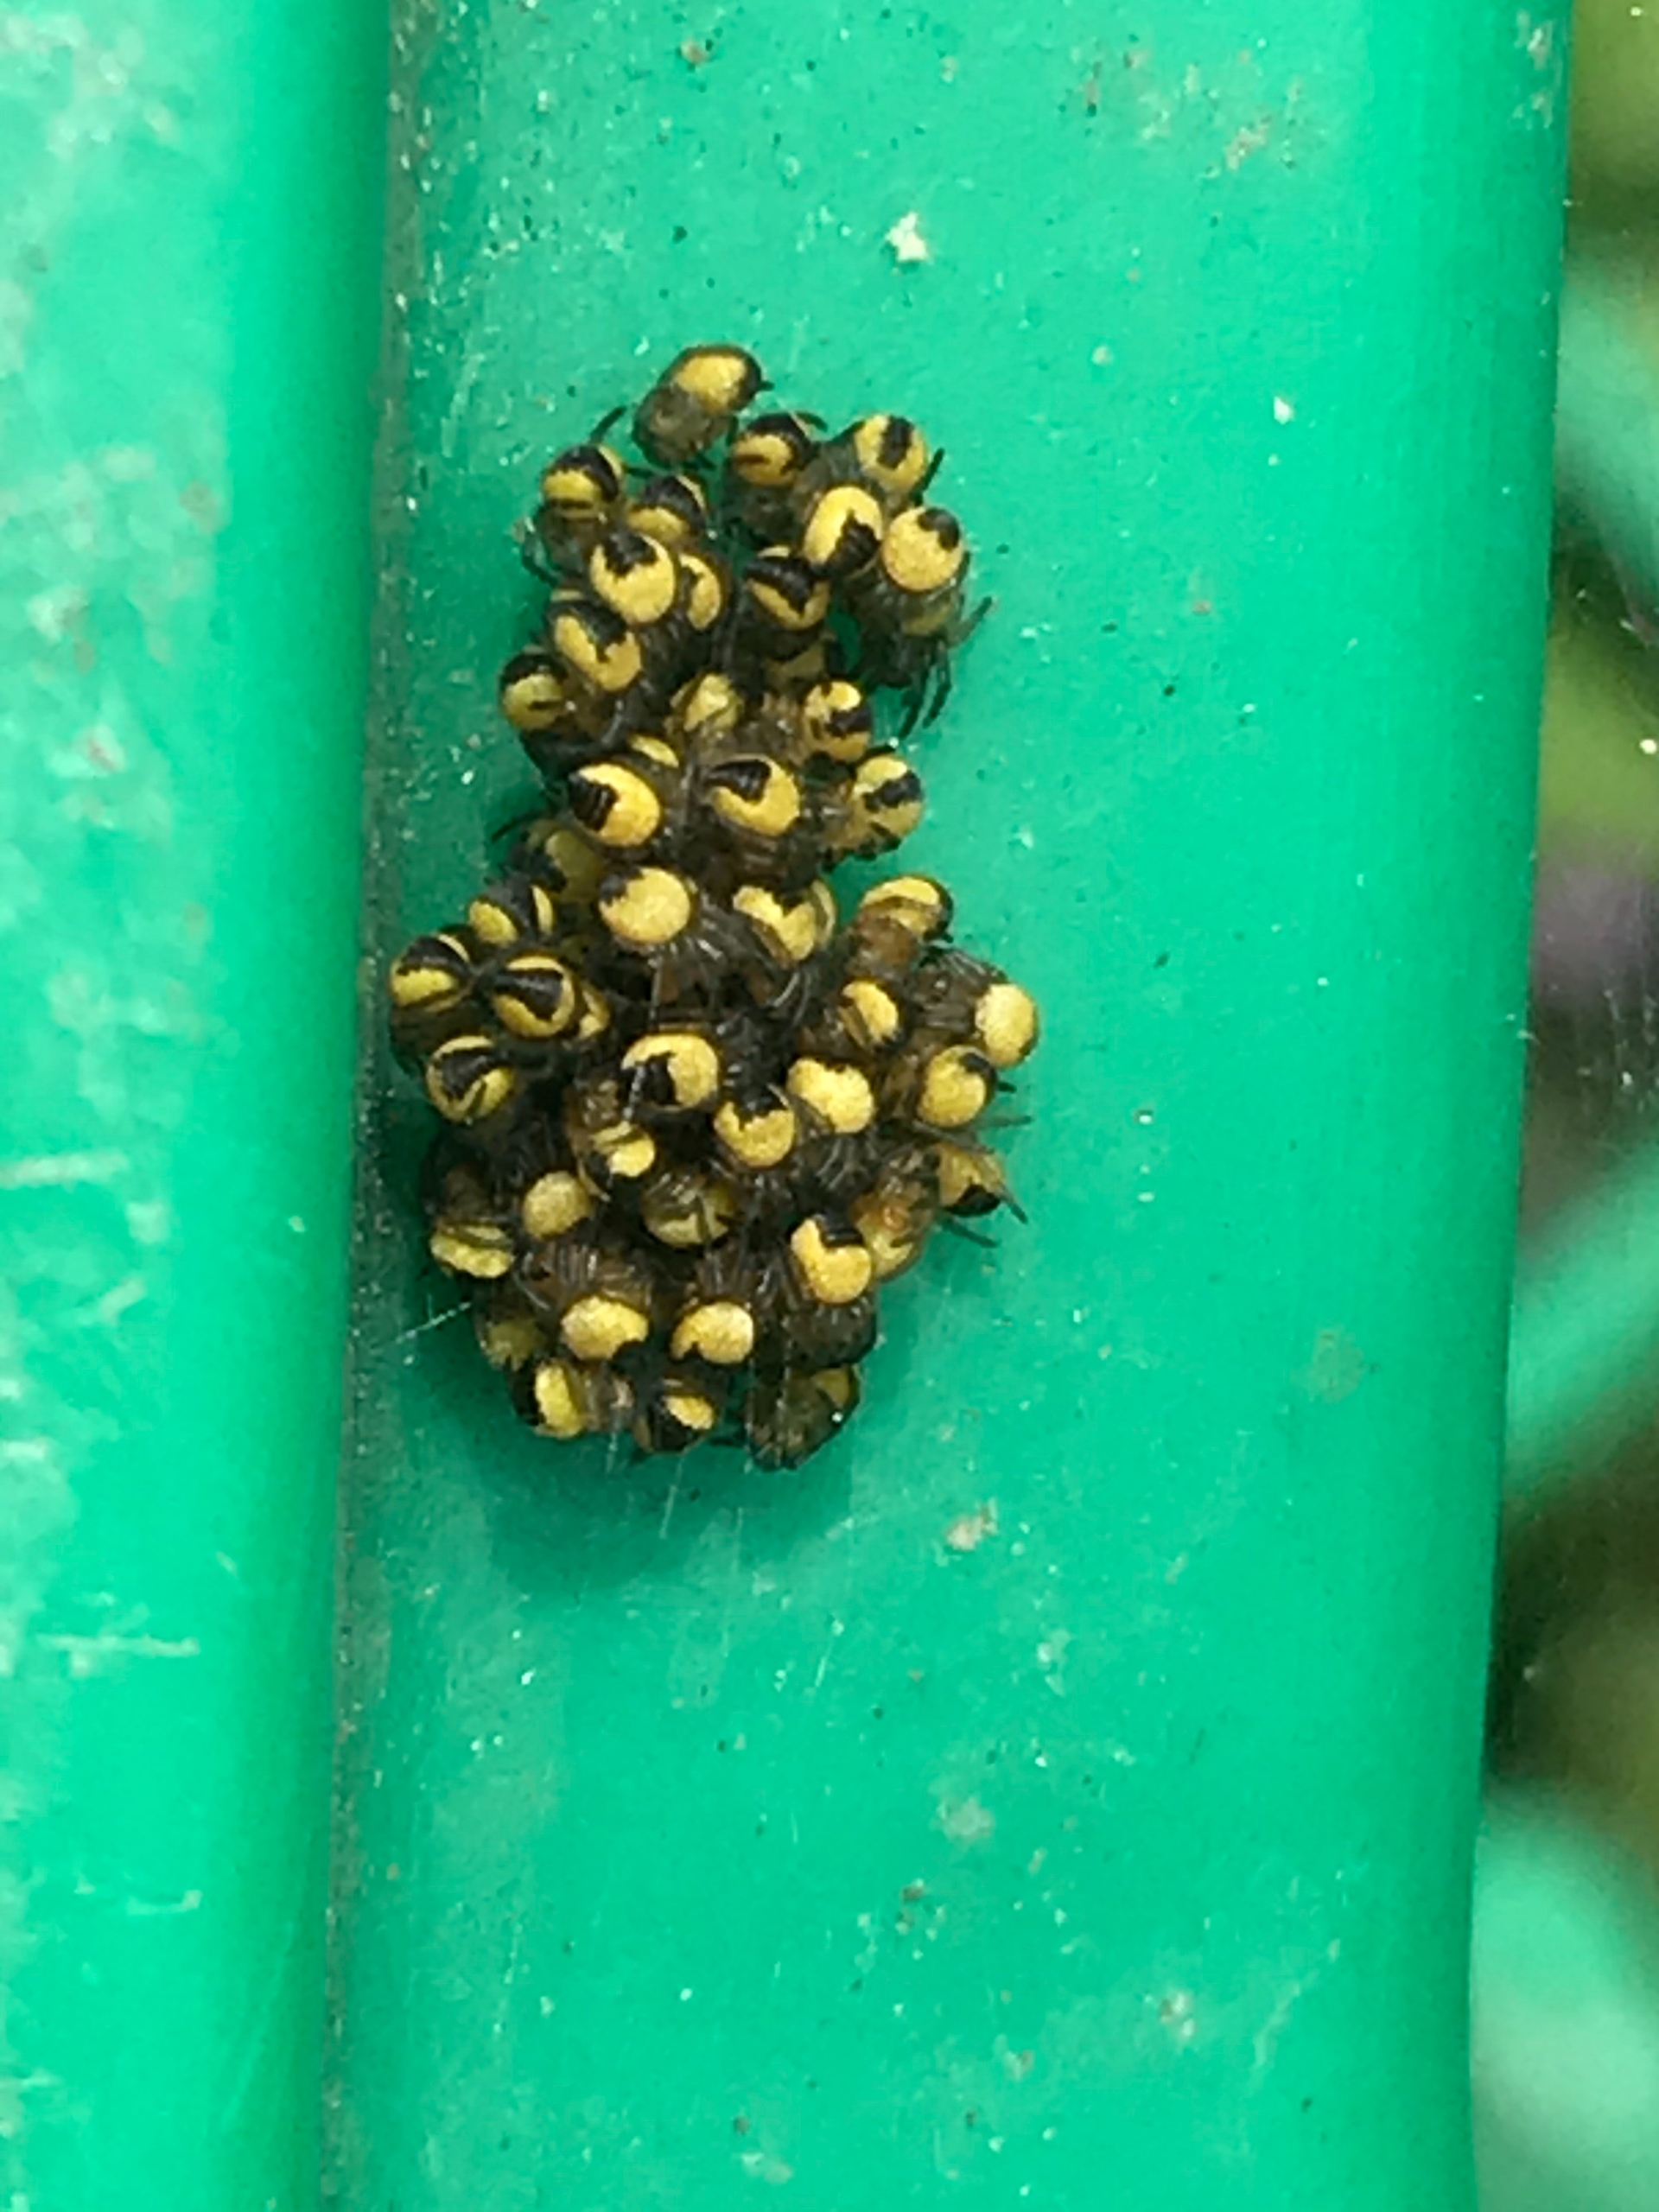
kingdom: Animalia
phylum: Arthropoda
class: Arachnida
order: Araneae
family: Araneidae
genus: Araneus
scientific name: Araneus diadematus
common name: Korsedderkop
